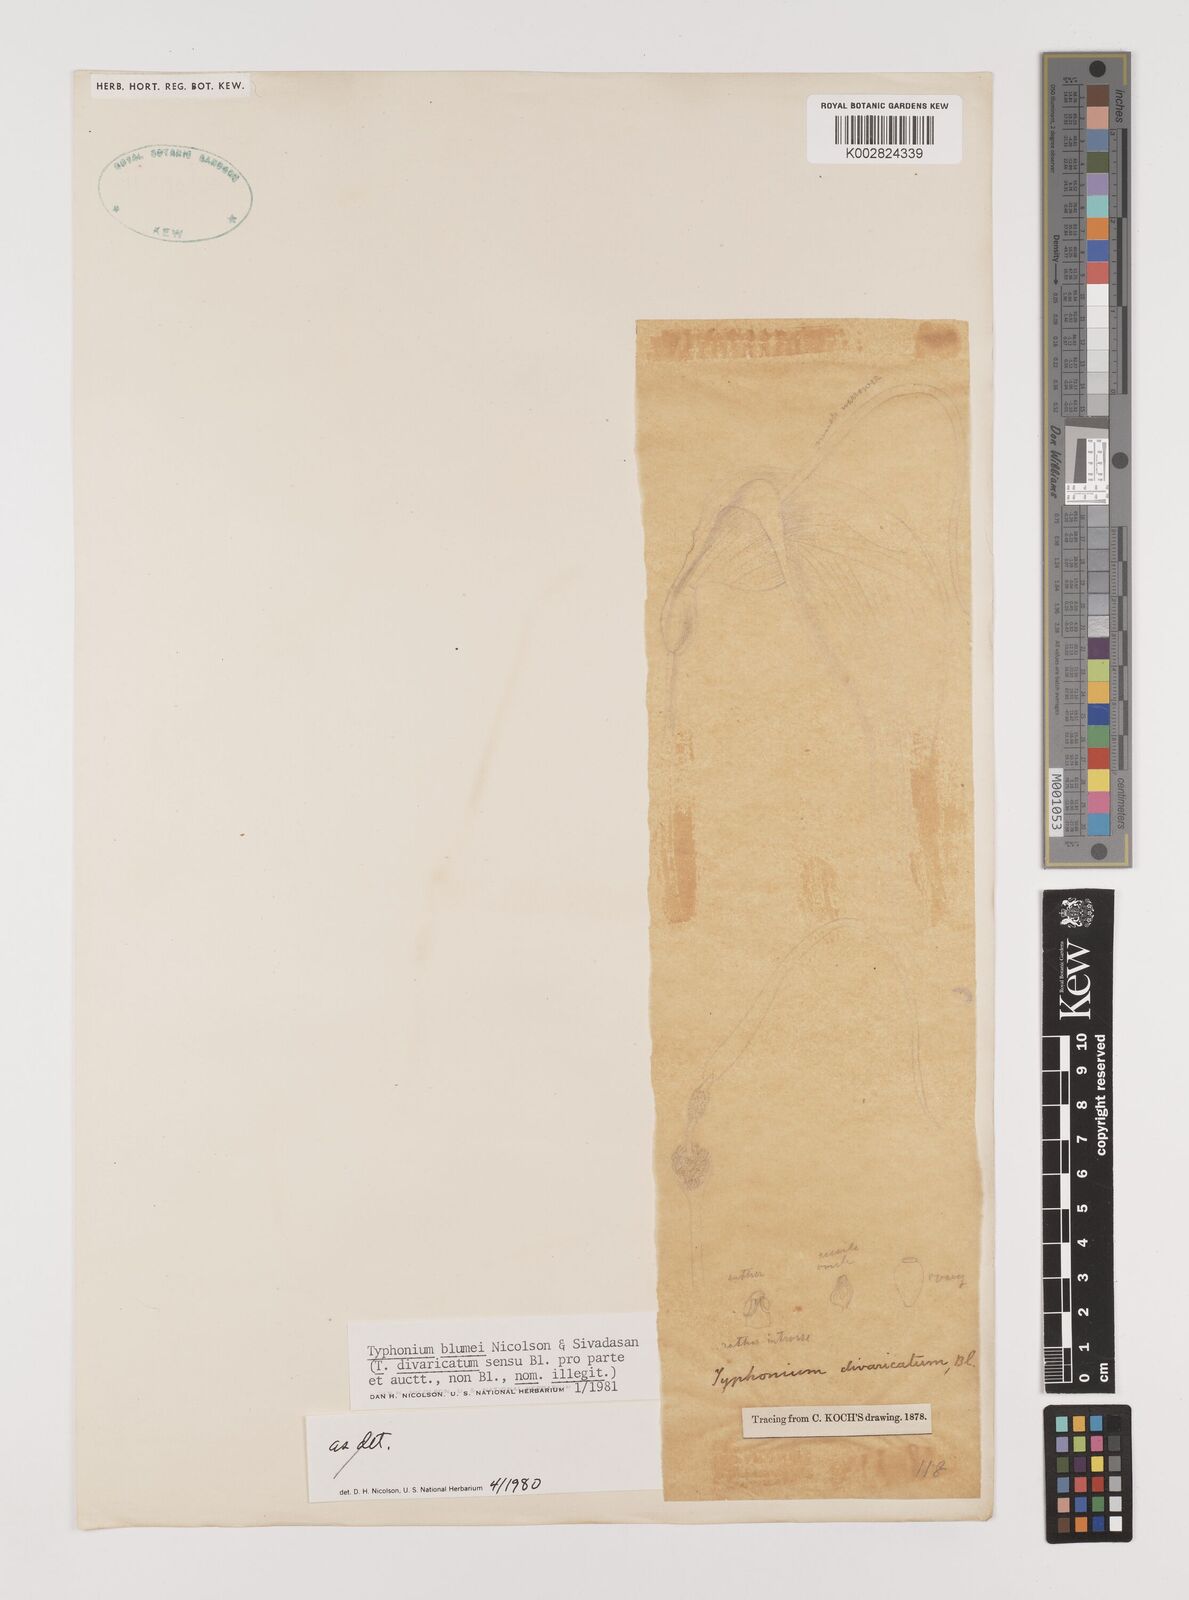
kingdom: Plantae
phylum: Tracheophyta
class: Liliopsida
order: Alismatales
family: Araceae
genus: Typhonium
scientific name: Typhonium blumei
